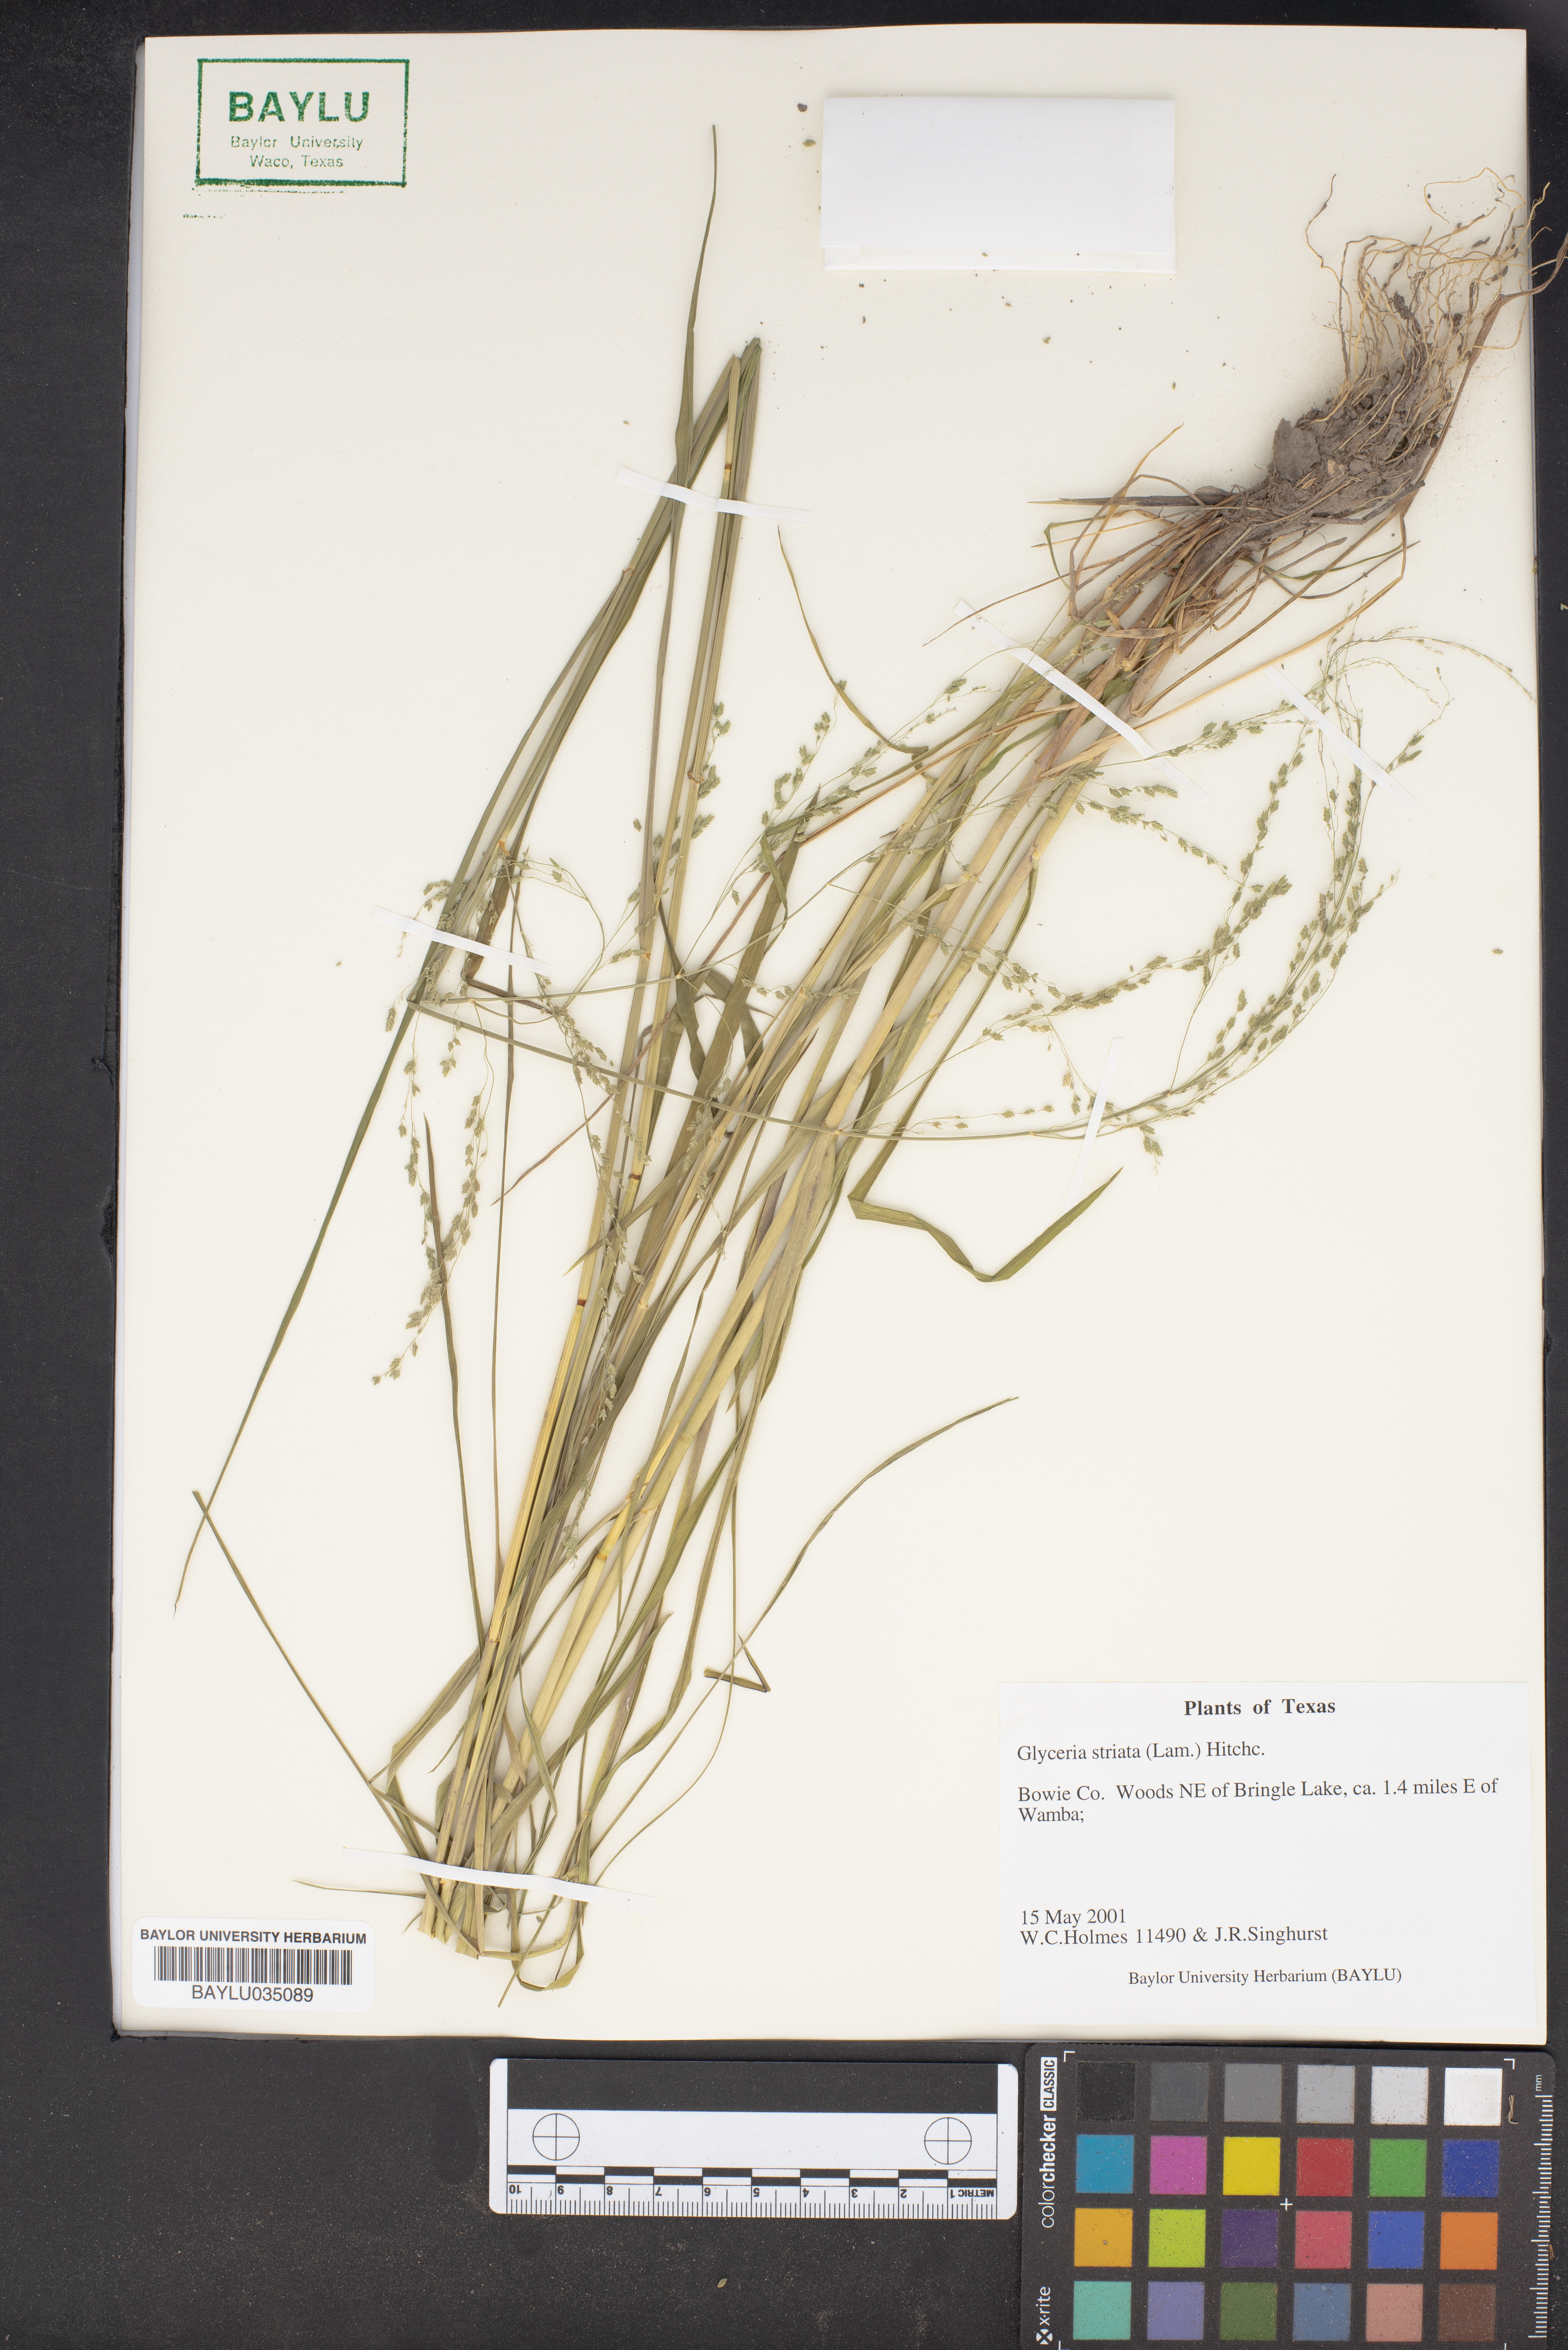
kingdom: Plantae
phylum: Tracheophyta
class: Liliopsida
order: Poales
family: Poaceae
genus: Glyceria
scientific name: Glyceria striata
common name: Fowl manna grass
